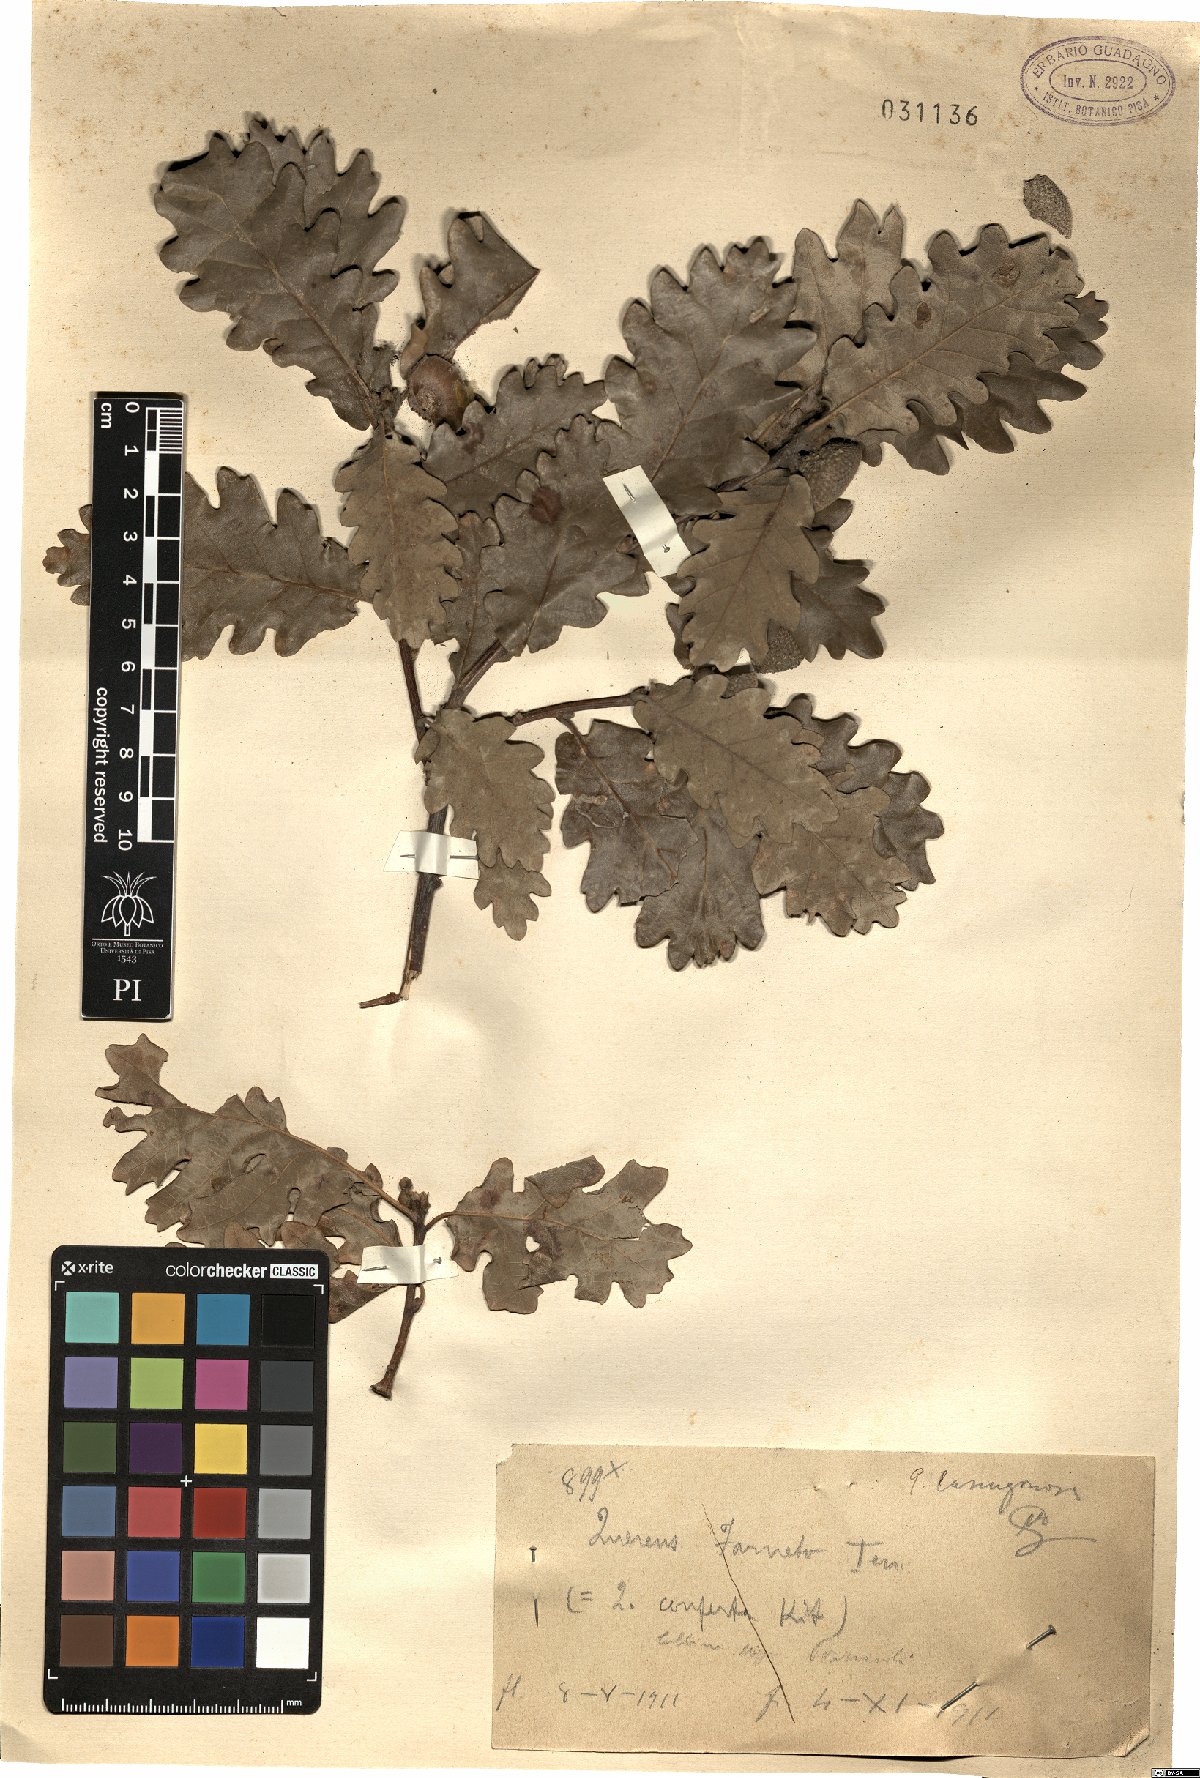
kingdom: Plantae
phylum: Tracheophyta
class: Magnoliopsida
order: Fagales
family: Fagaceae
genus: Quercus
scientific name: Quercus cerris
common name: Turkey oak
